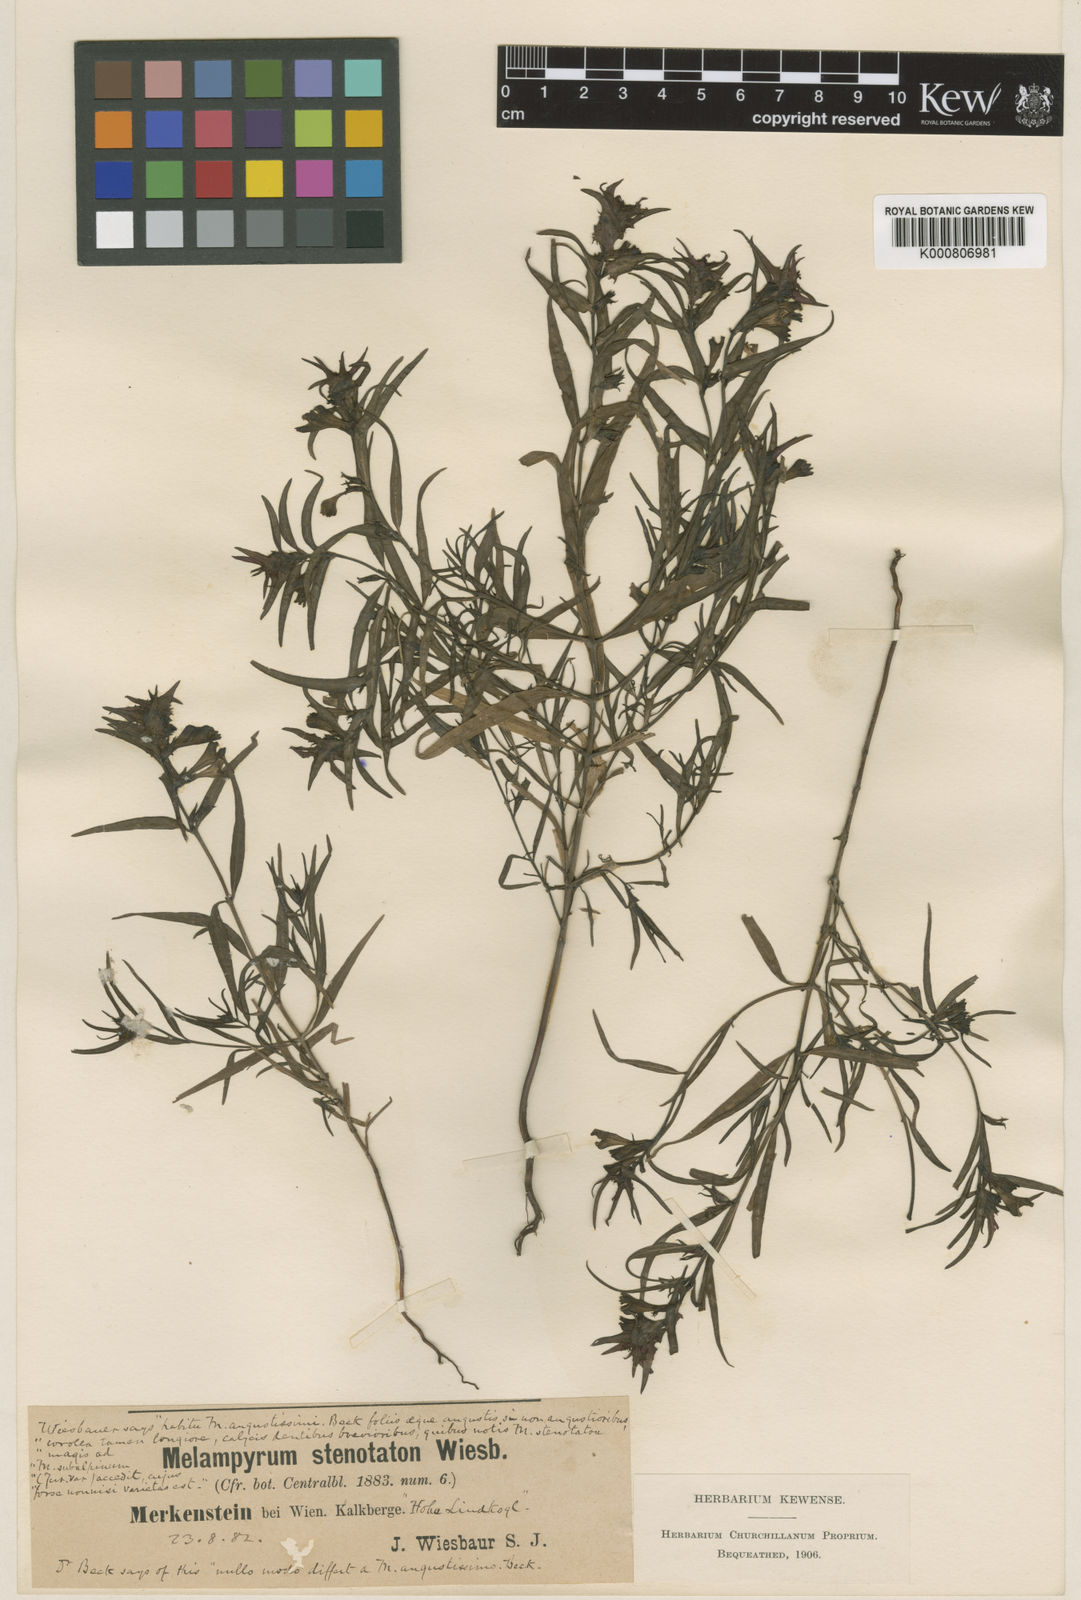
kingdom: Plantae
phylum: Tracheophyta
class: Magnoliopsida
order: Lamiales
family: Orobanchaceae
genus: Melampyrum
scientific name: Melampyrum subalpinum
